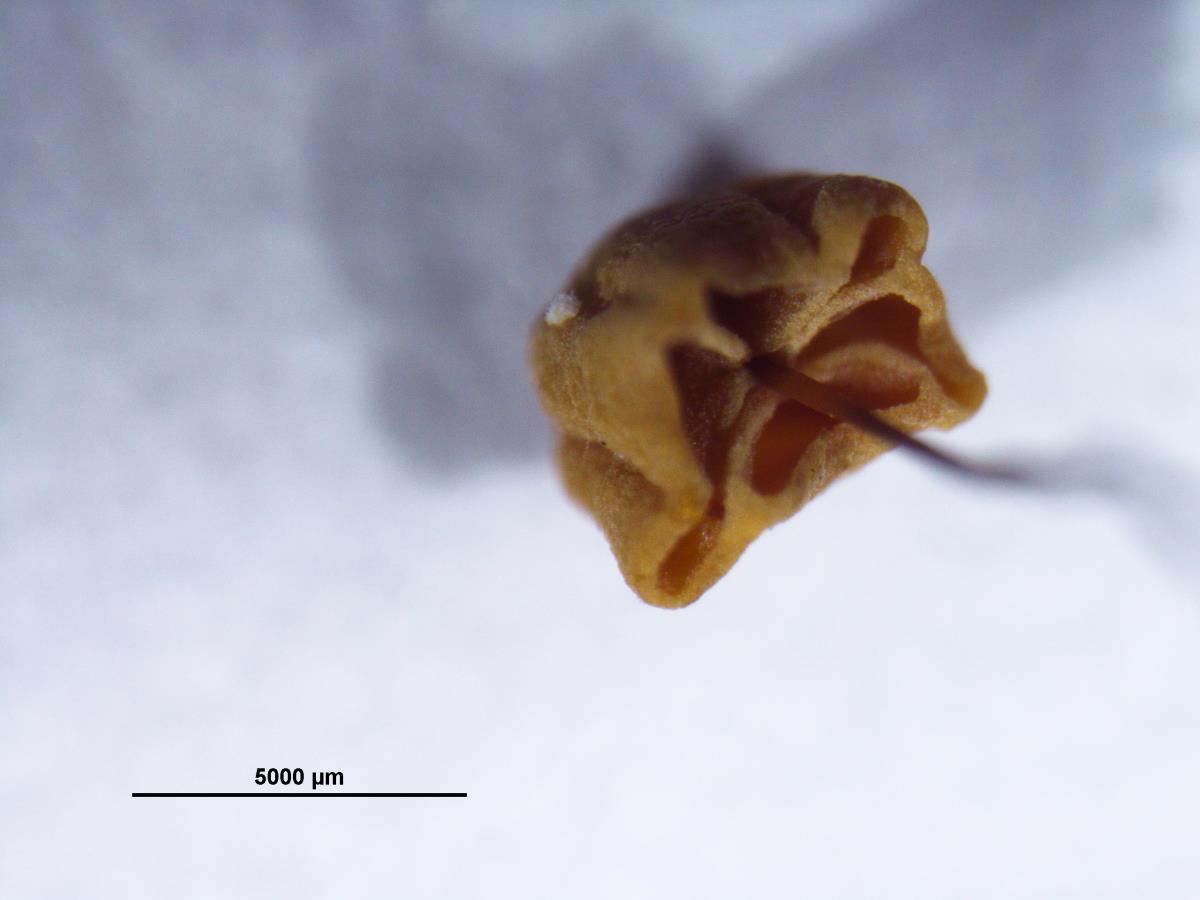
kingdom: Fungi
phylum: Basidiomycota
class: Agaricomycetes
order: Agaricales
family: Marasmiaceae
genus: Marasmius
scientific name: Marasmius pallenticeps
